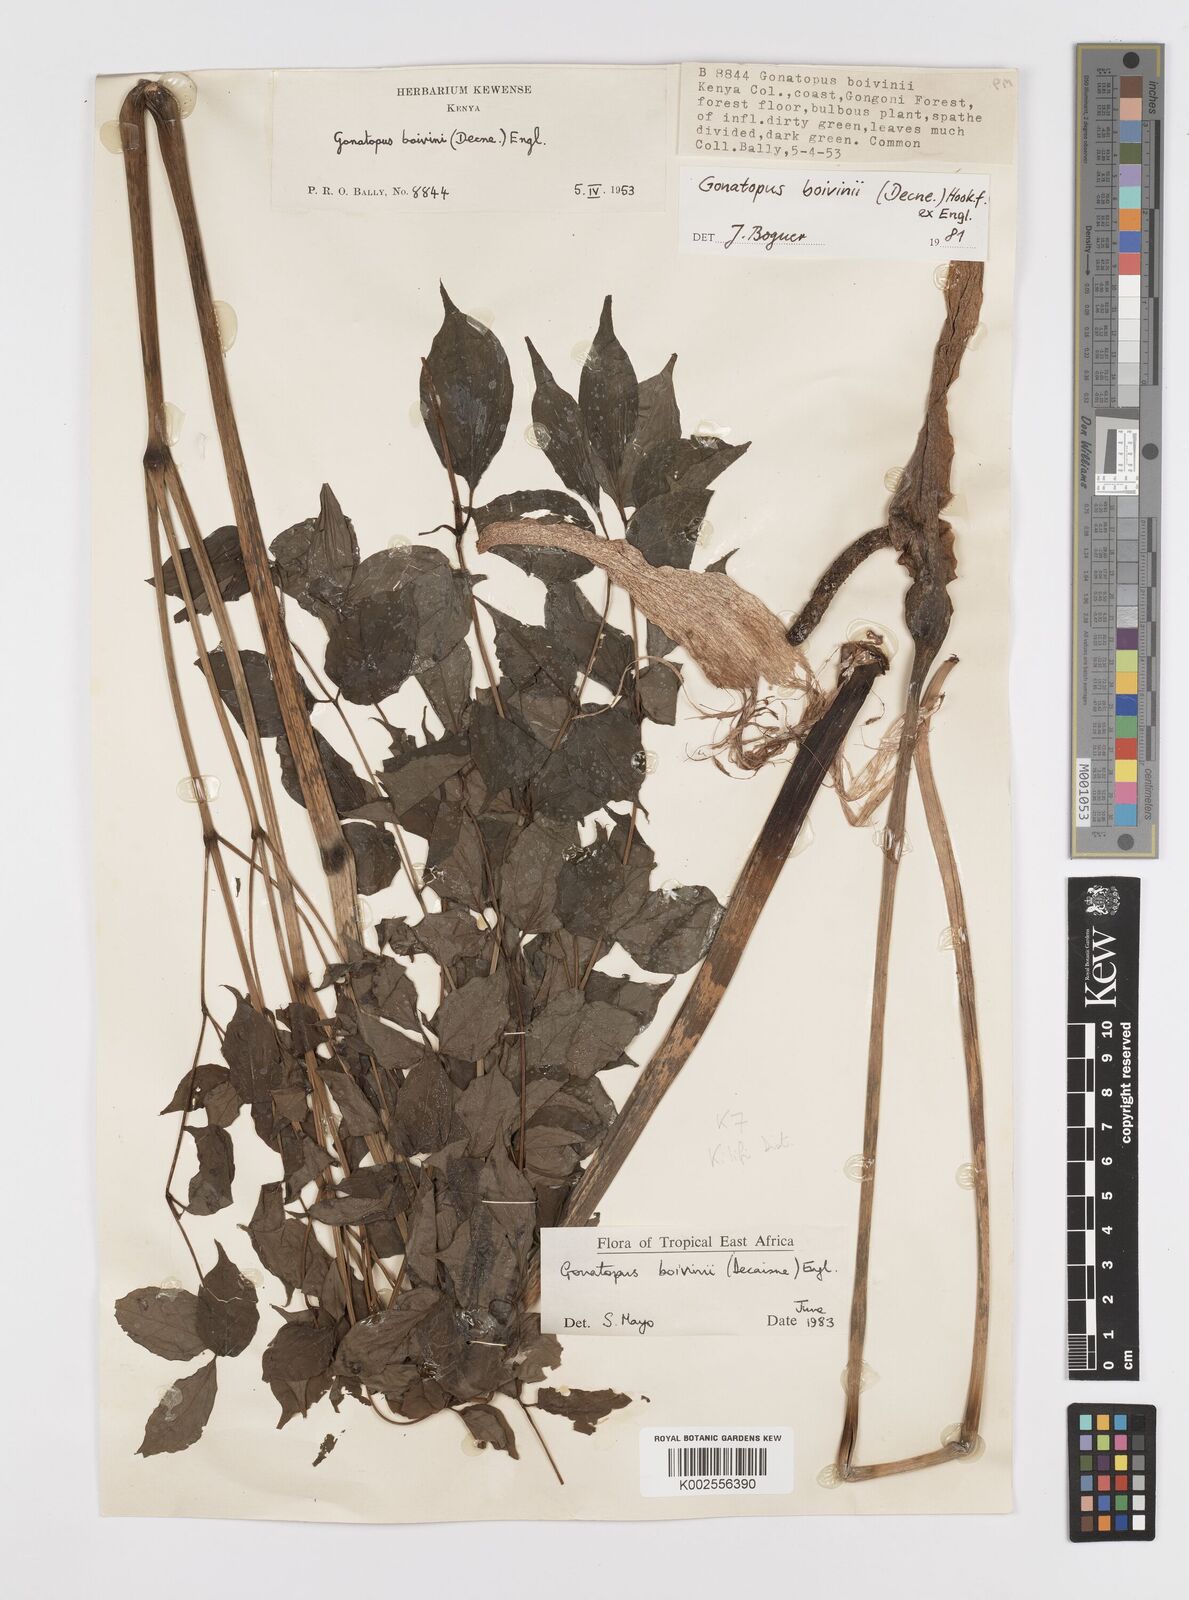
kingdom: Plantae
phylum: Tracheophyta
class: Liliopsida
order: Alismatales
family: Araceae
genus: Gonatopus
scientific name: Gonatopus boivinii
